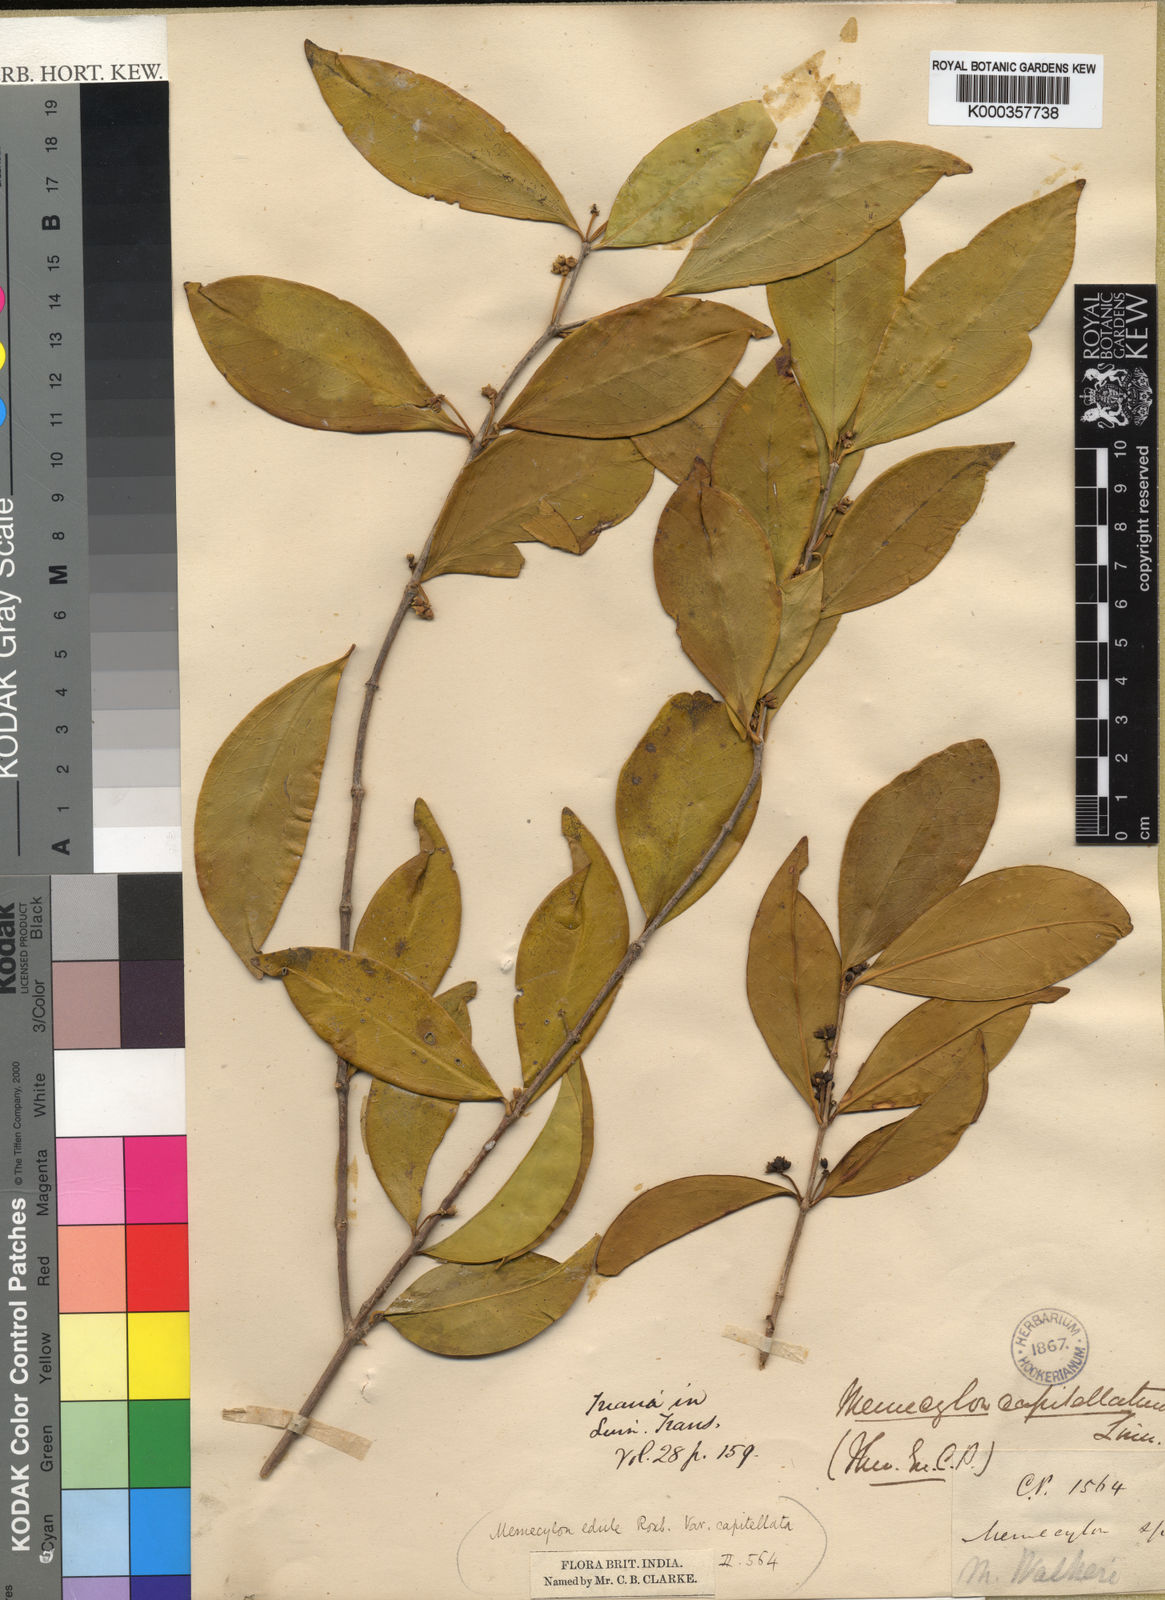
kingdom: Plantae
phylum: Tracheophyta
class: Magnoliopsida
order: Myrtales
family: Melastomataceae
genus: Memecylon
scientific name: Memecylon capitellatum
